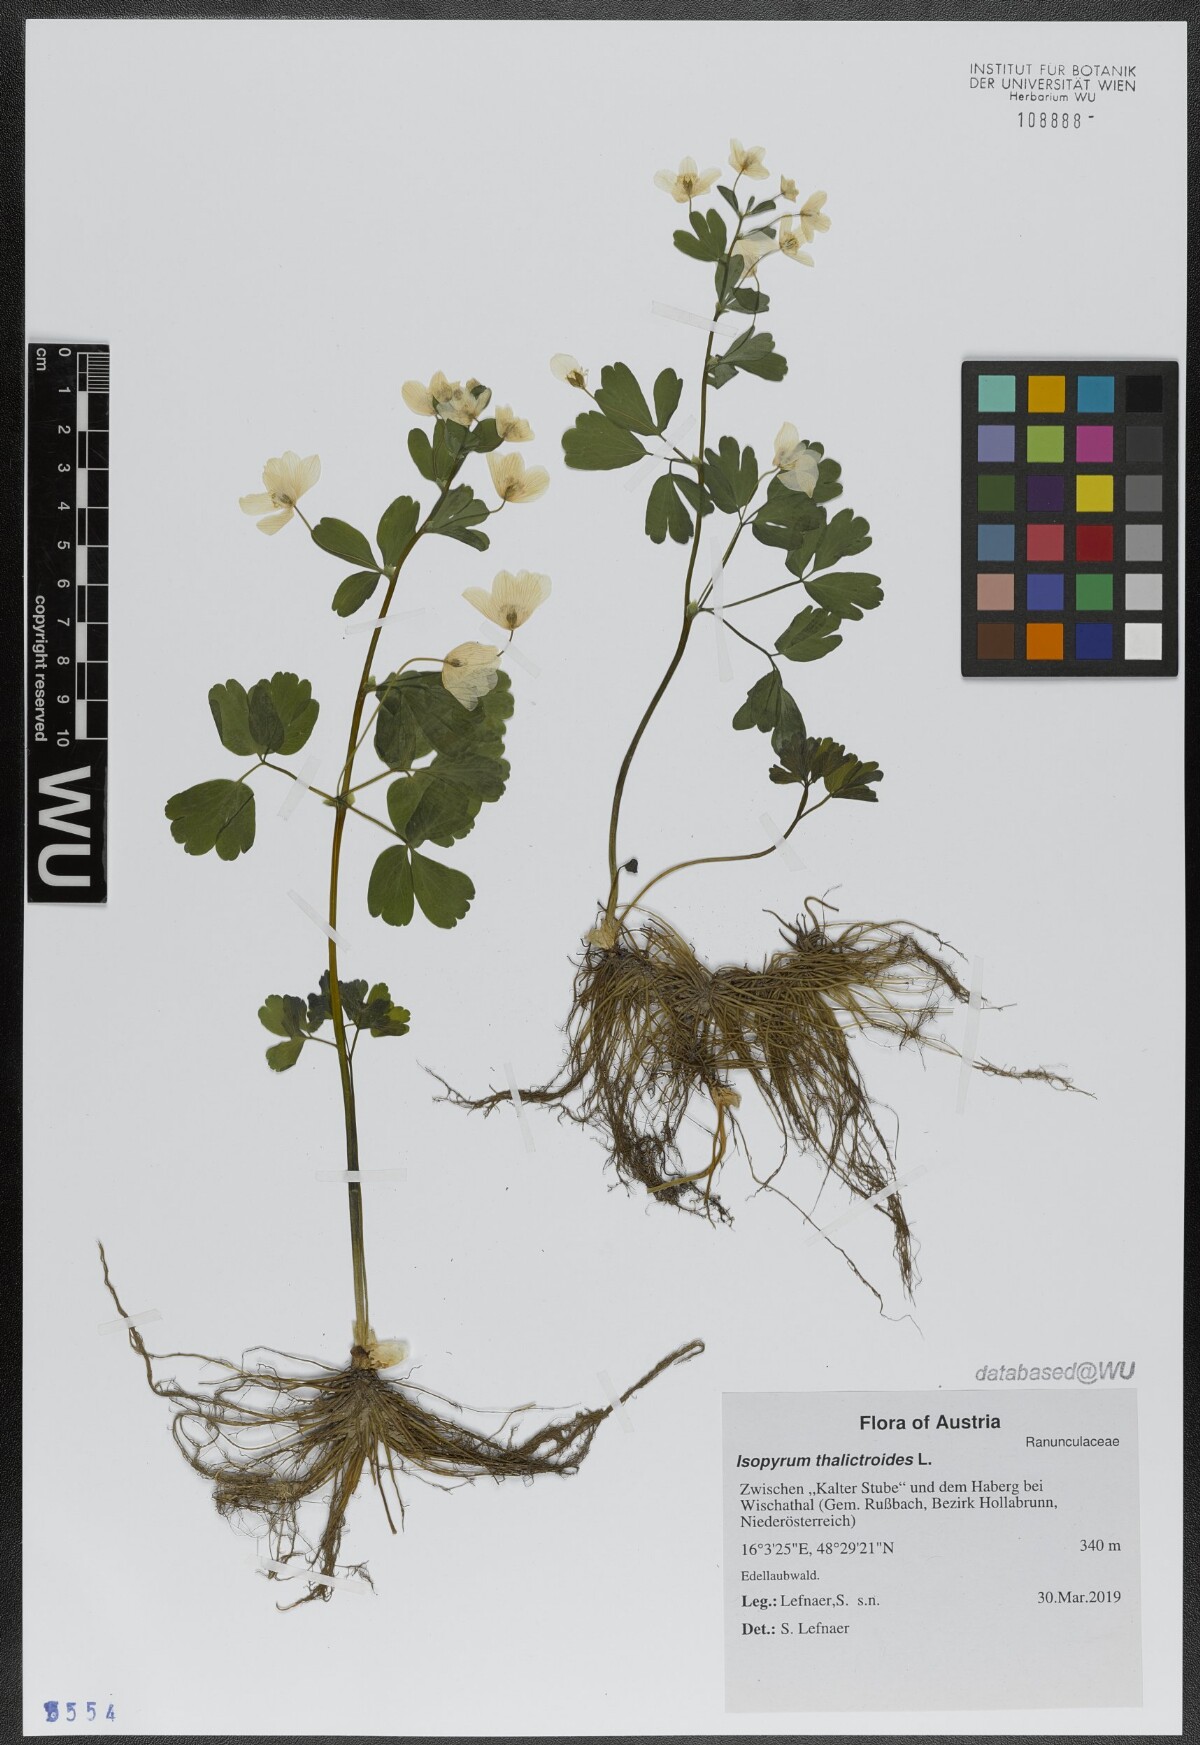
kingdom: Plantae
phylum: Tracheophyta
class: Magnoliopsida
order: Ranunculales
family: Ranunculaceae
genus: Isopyrum
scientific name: Isopyrum thalictroides
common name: Isopyrum
